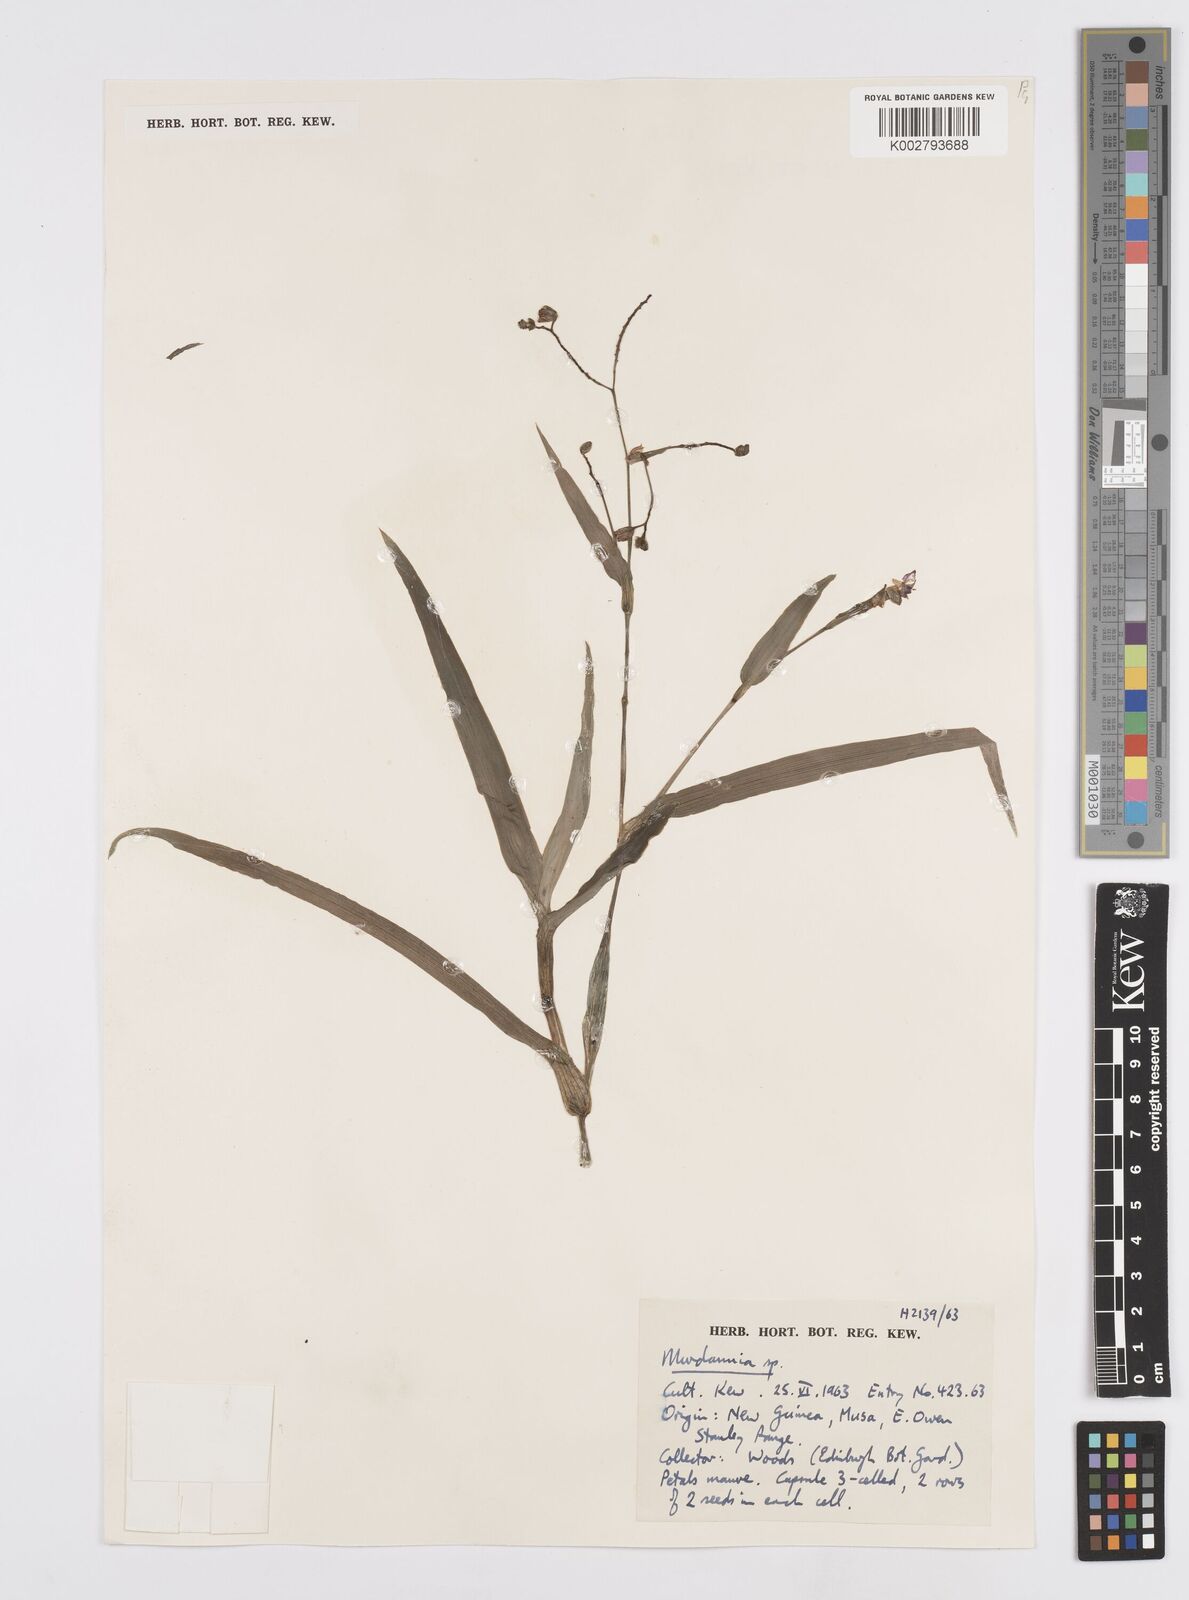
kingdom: Plantae
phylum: Tracheophyta
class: Liliopsida
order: Commelinales
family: Commelinaceae
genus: Murdannia
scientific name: Murdannia
